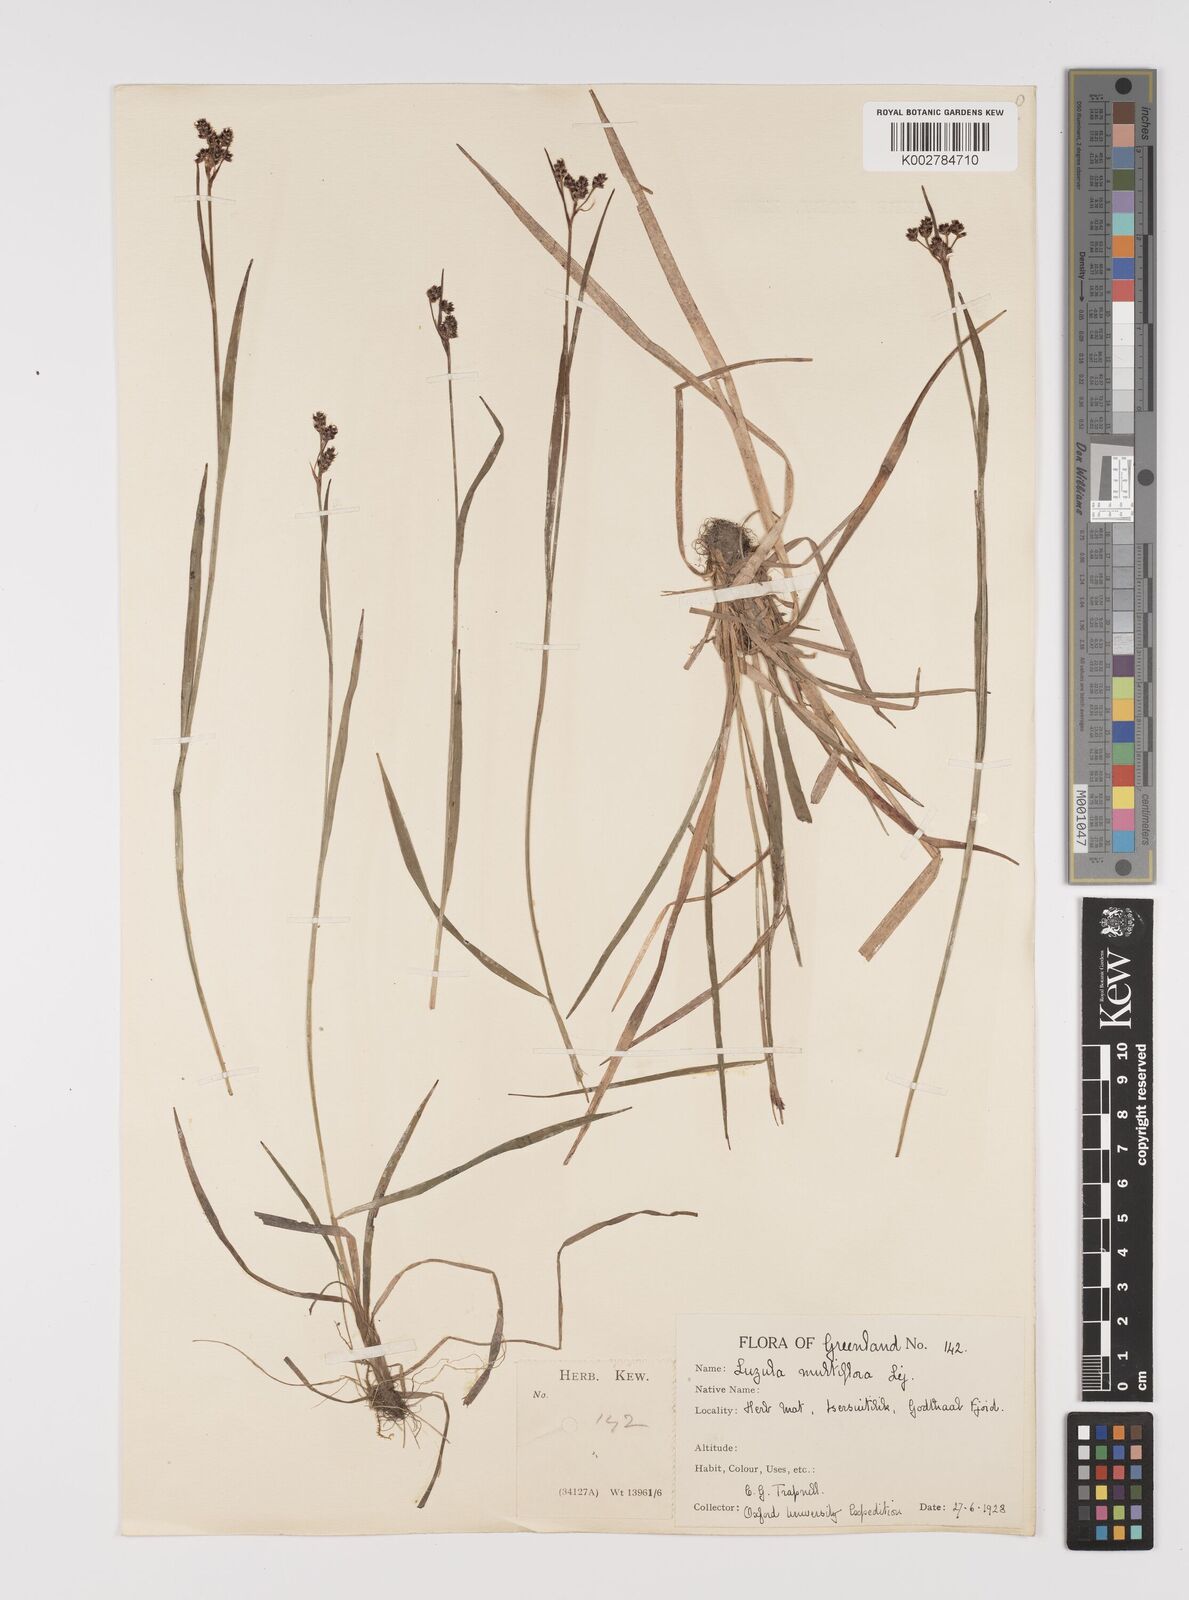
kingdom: Plantae
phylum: Tracheophyta
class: Liliopsida
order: Poales
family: Juncaceae
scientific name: Juncaceae
